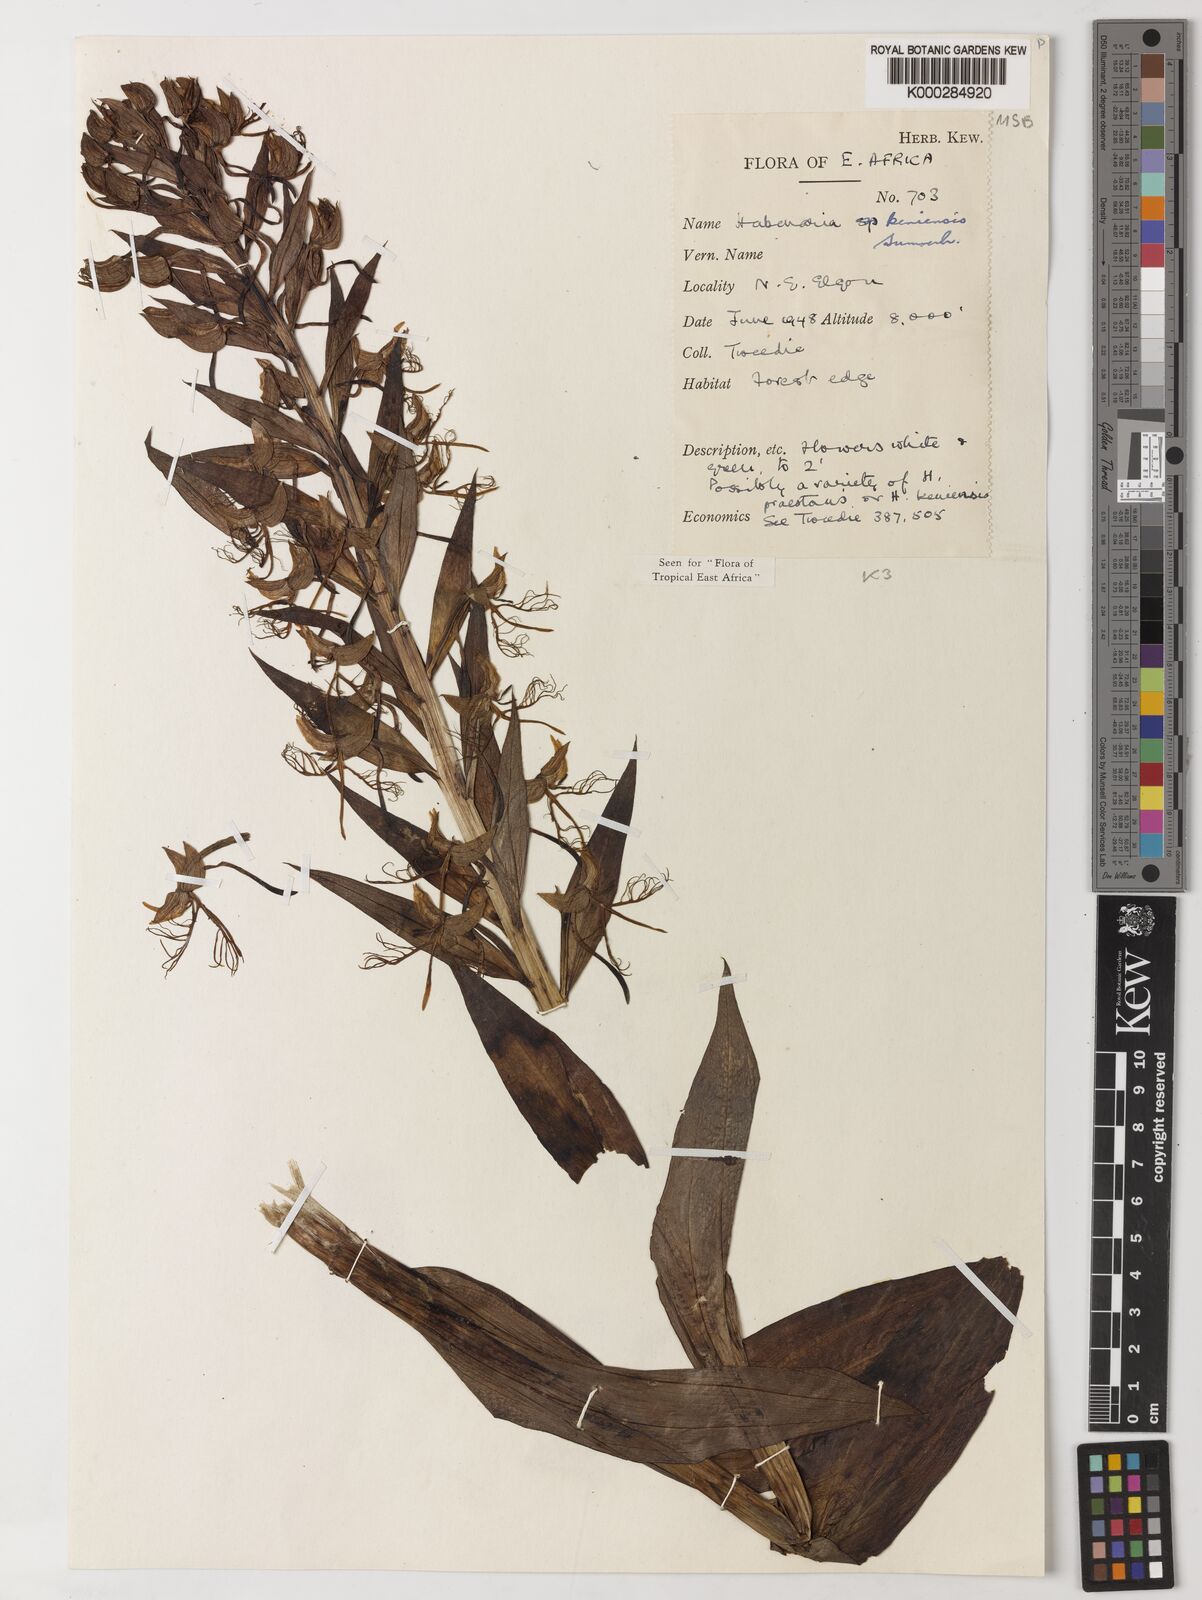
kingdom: Plantae
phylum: Tracheophyta
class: Liliopsida
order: Asparagales
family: Orchidaceae
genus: Habenaria
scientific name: Habenaria keniensis
